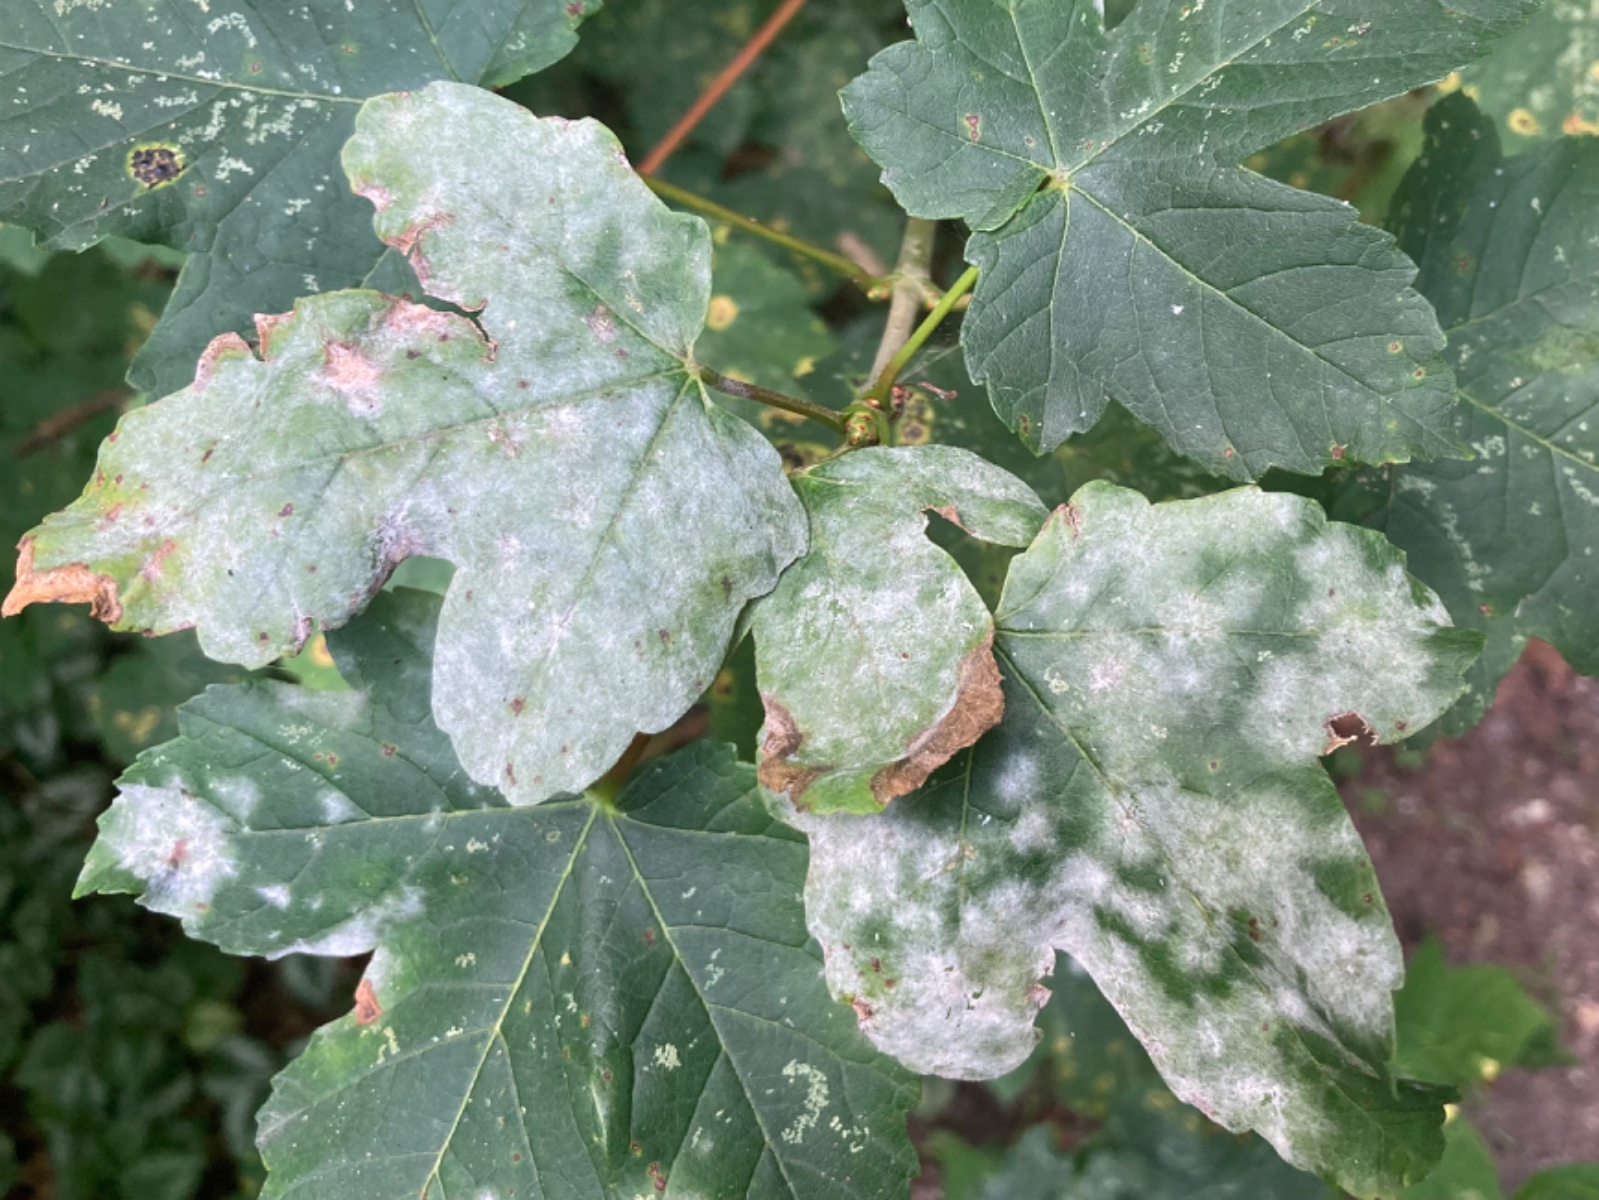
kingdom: Fungi
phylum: Ascomycota
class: Leotiomycetes
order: Helotiales
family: Erysiphaceae
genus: Sawadaea
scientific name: Sawadaea bicornis
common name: Maple mildew
